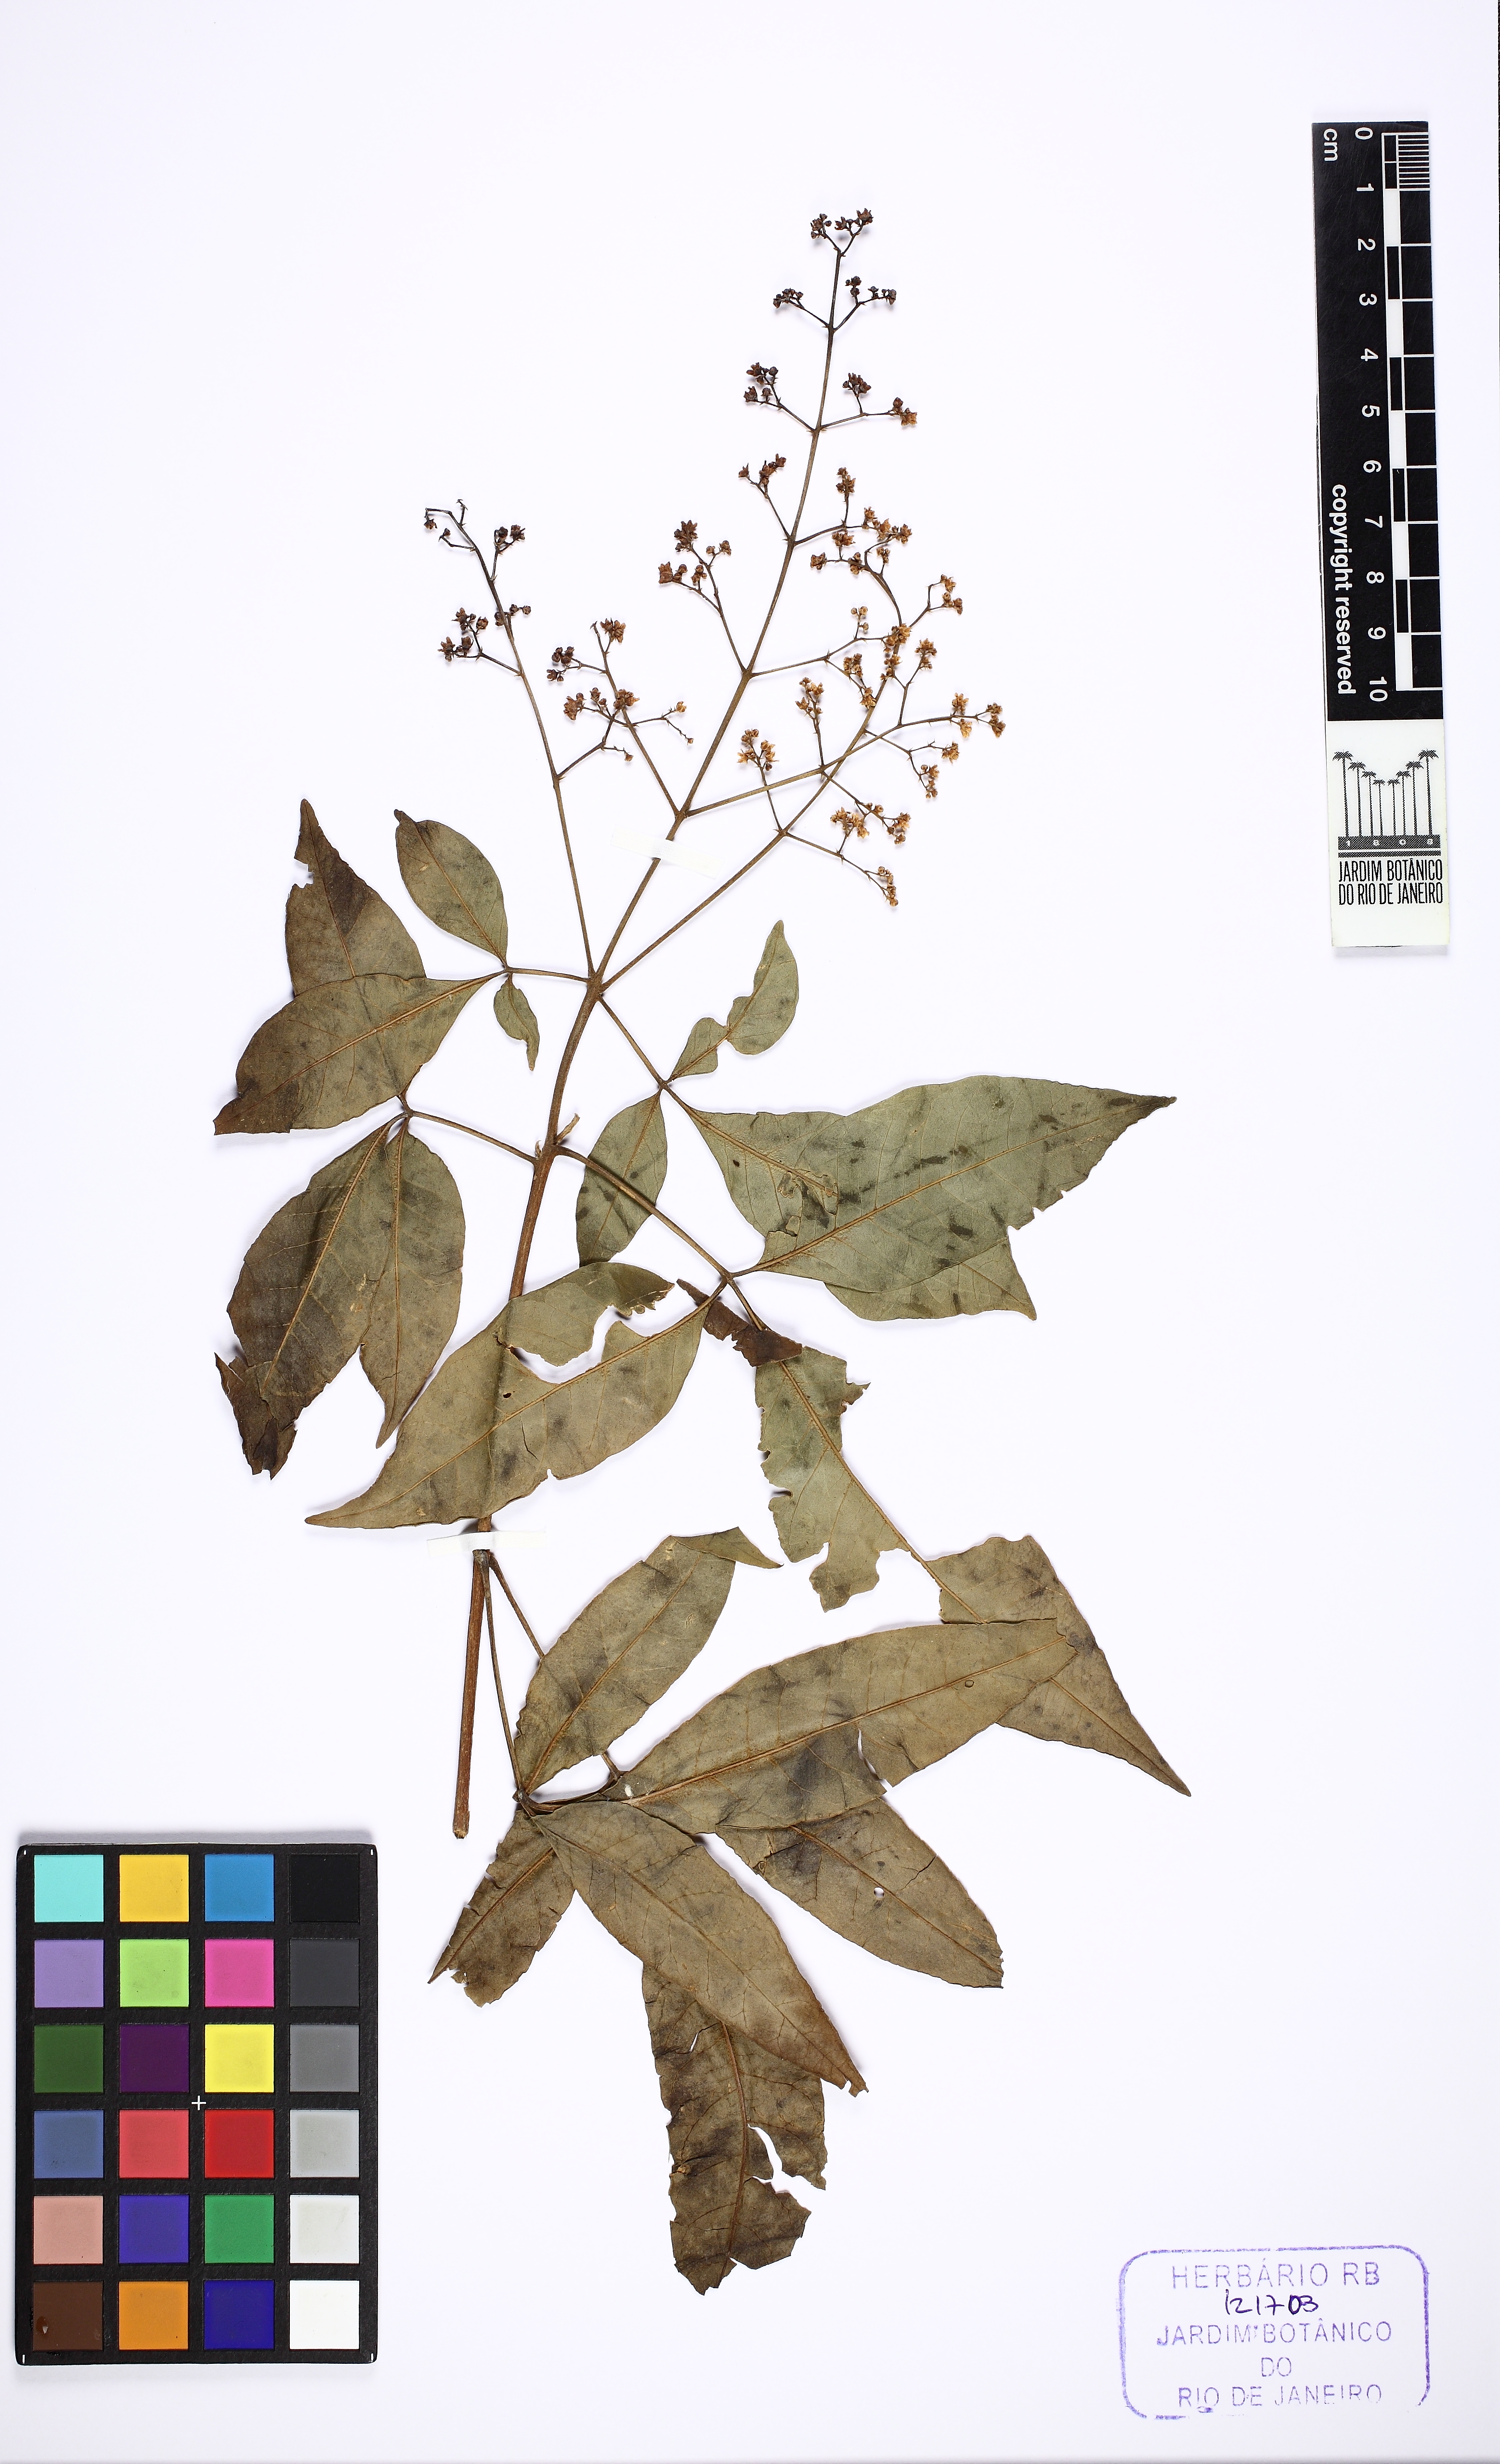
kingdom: Plantae
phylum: Tracheophyta
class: Magnoliopsida
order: Sapindales
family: Rutaceae
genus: Esenbeckia
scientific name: Esenbeckia febrifuga
